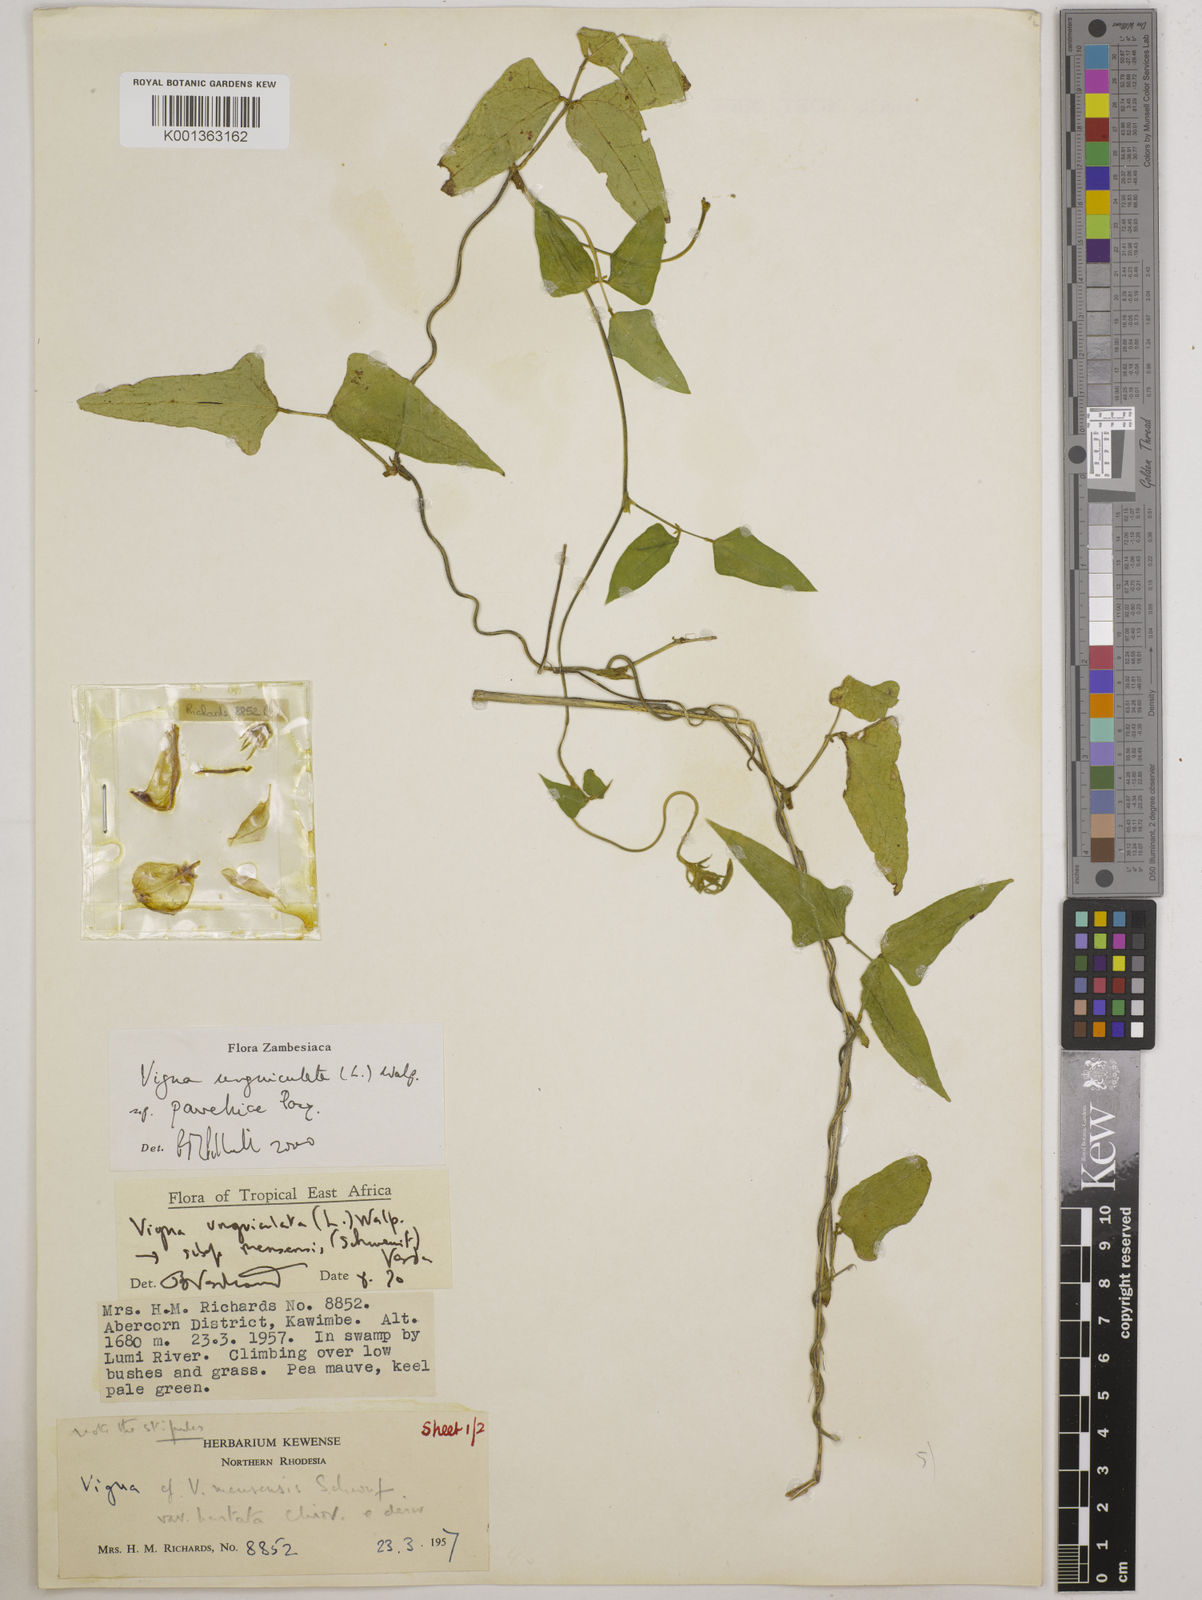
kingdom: Plantae
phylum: Tracheophyta
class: Magnoliopsida
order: Fabales
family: Fabaceae
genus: Vigna
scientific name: Vigna unguiculata
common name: Cowpea
